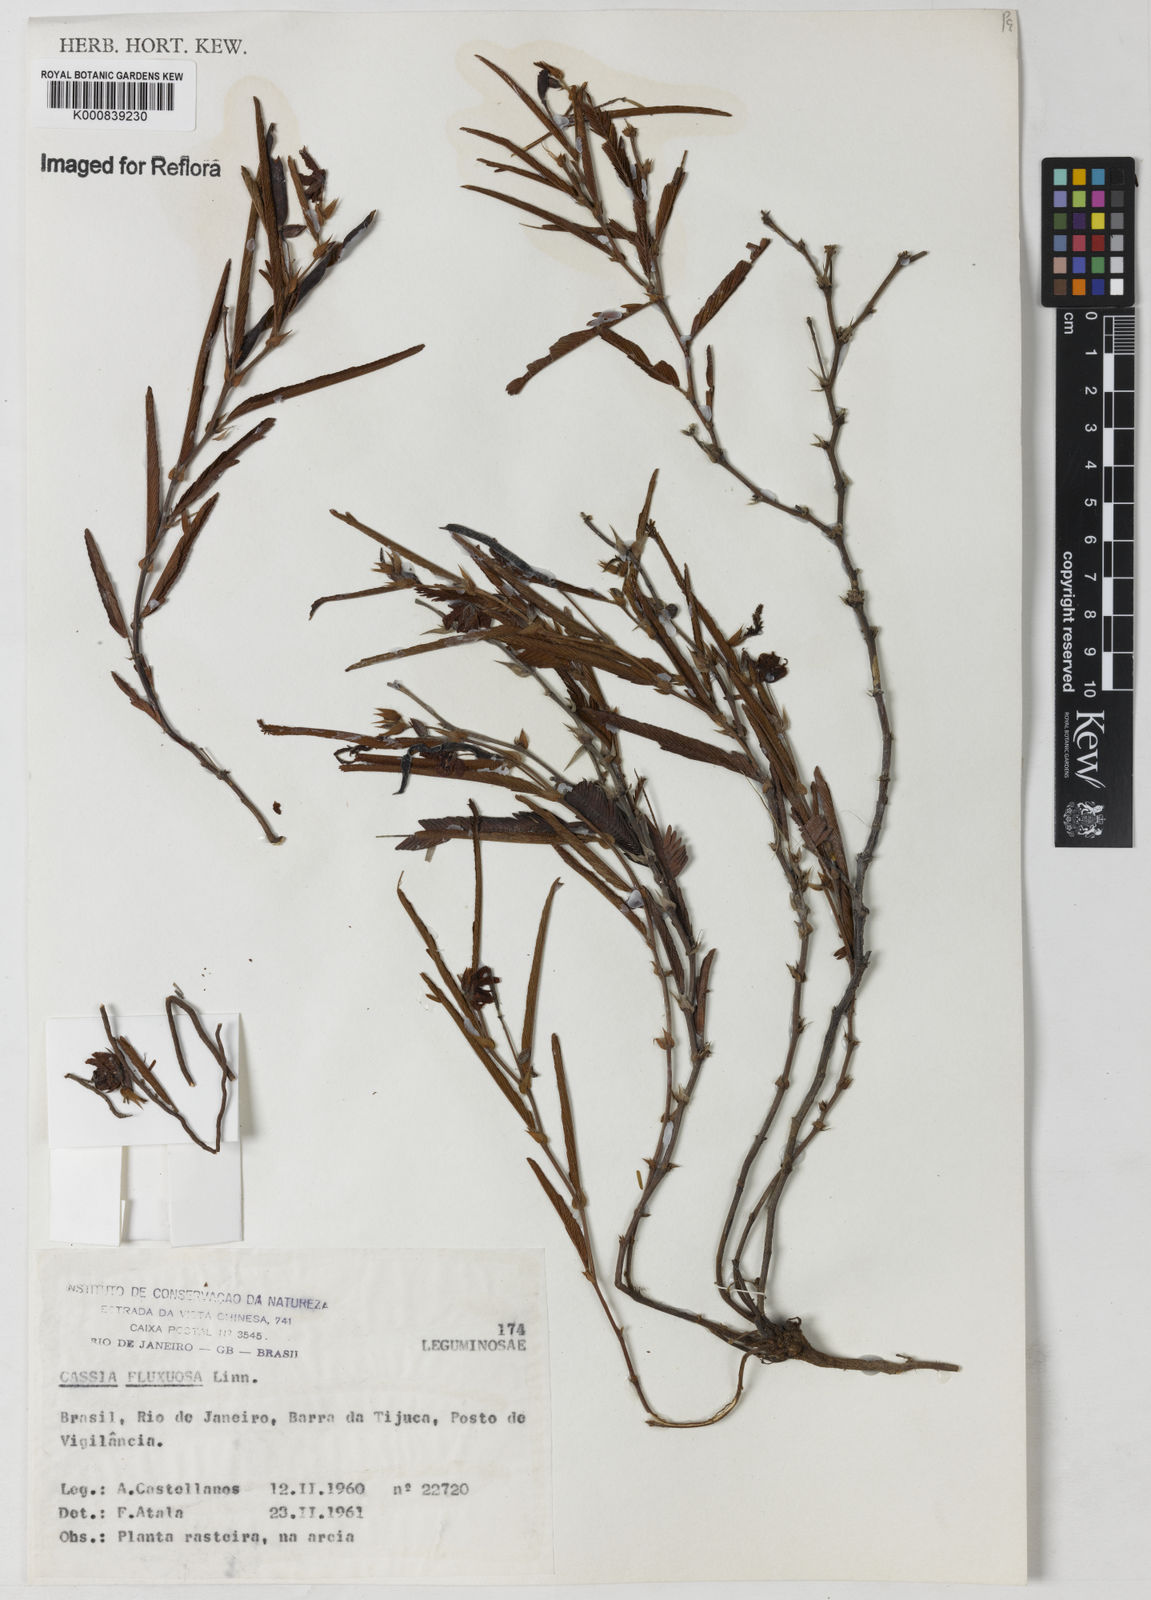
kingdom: Plantae
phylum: Tracheophyta
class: Magnoliopsida
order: Fabales
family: Fabaceae
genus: Chamaecrista
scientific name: Chamaecrista flexuosa
